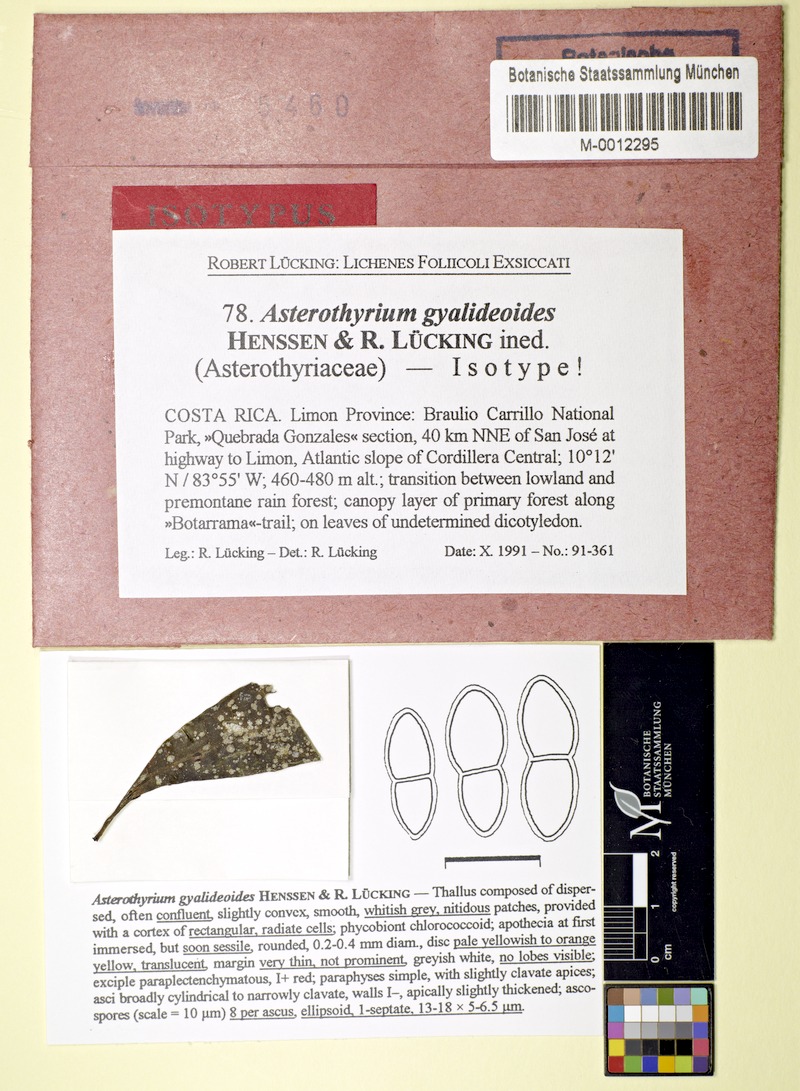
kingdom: Fungi
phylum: Ascomycota
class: Lecanoromycetes
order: Ostropales
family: Gomphillaceae
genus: Asterothyrium
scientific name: Asterothyrium
